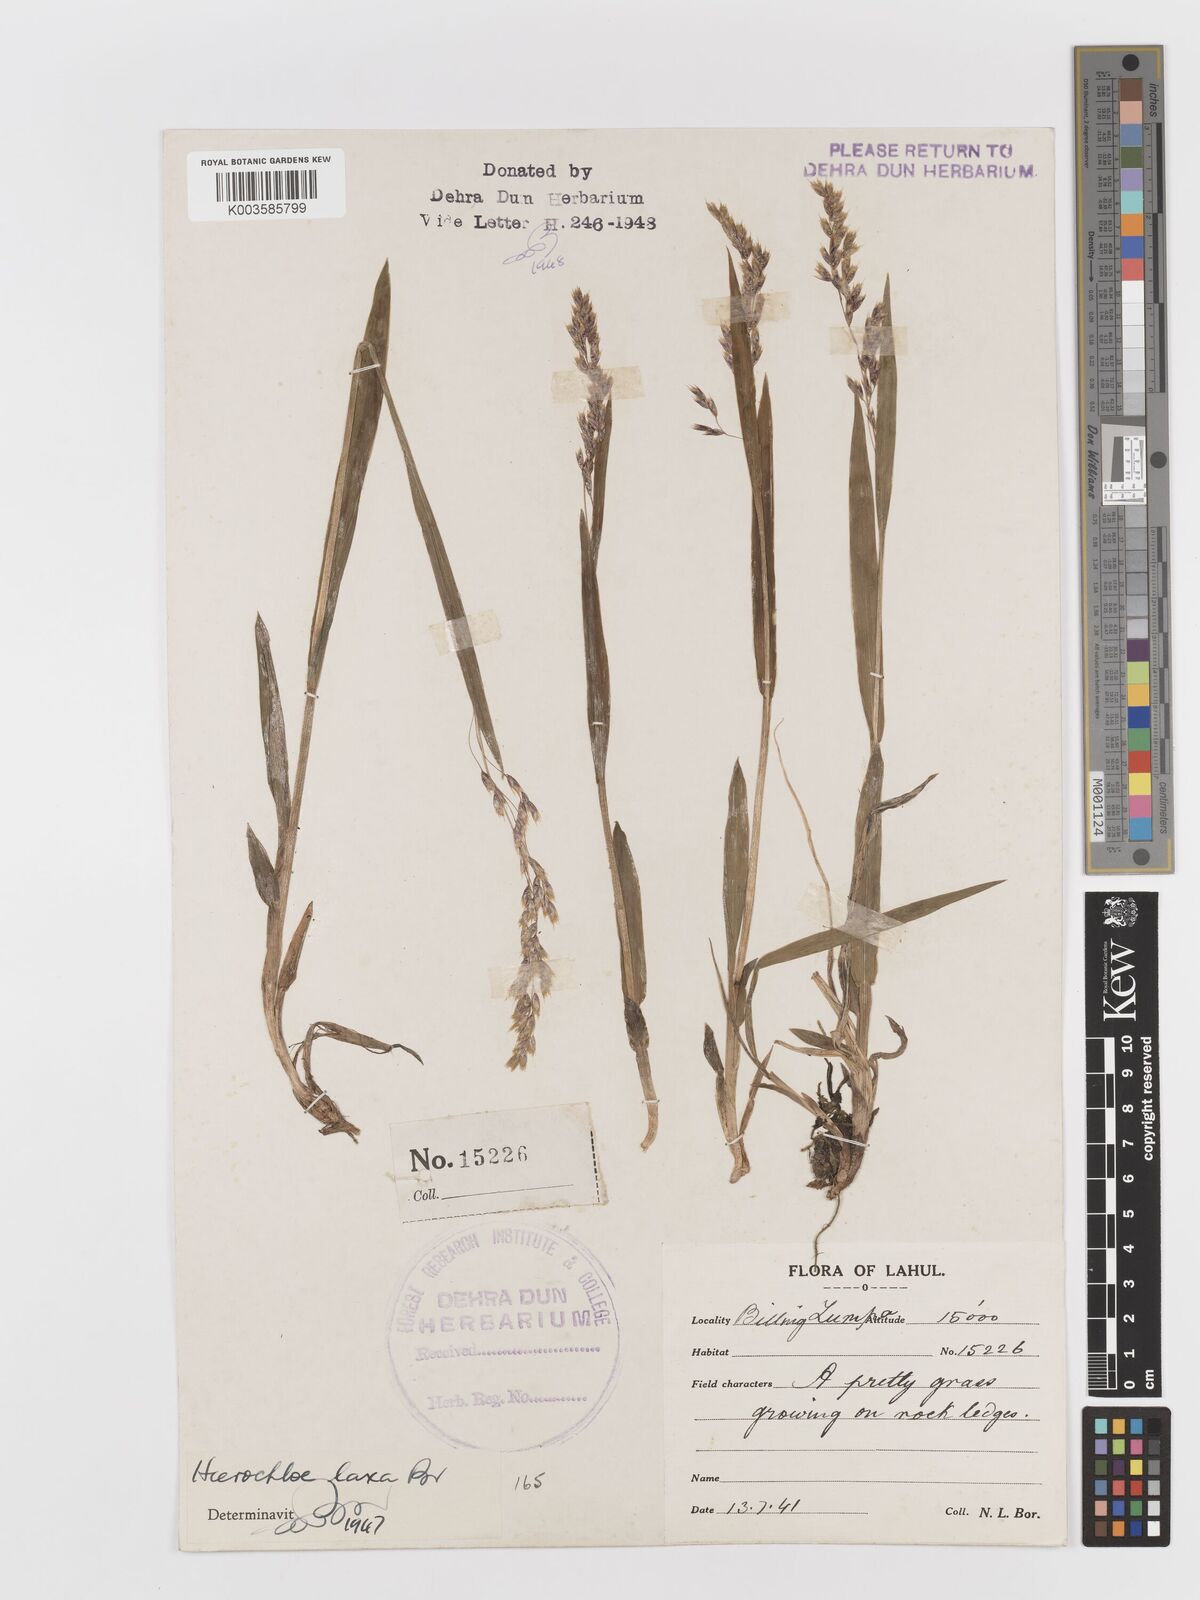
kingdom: Plantae
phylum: Tracheophyta
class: Liliopsida
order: Poales
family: Poaceae
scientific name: Poaceae
